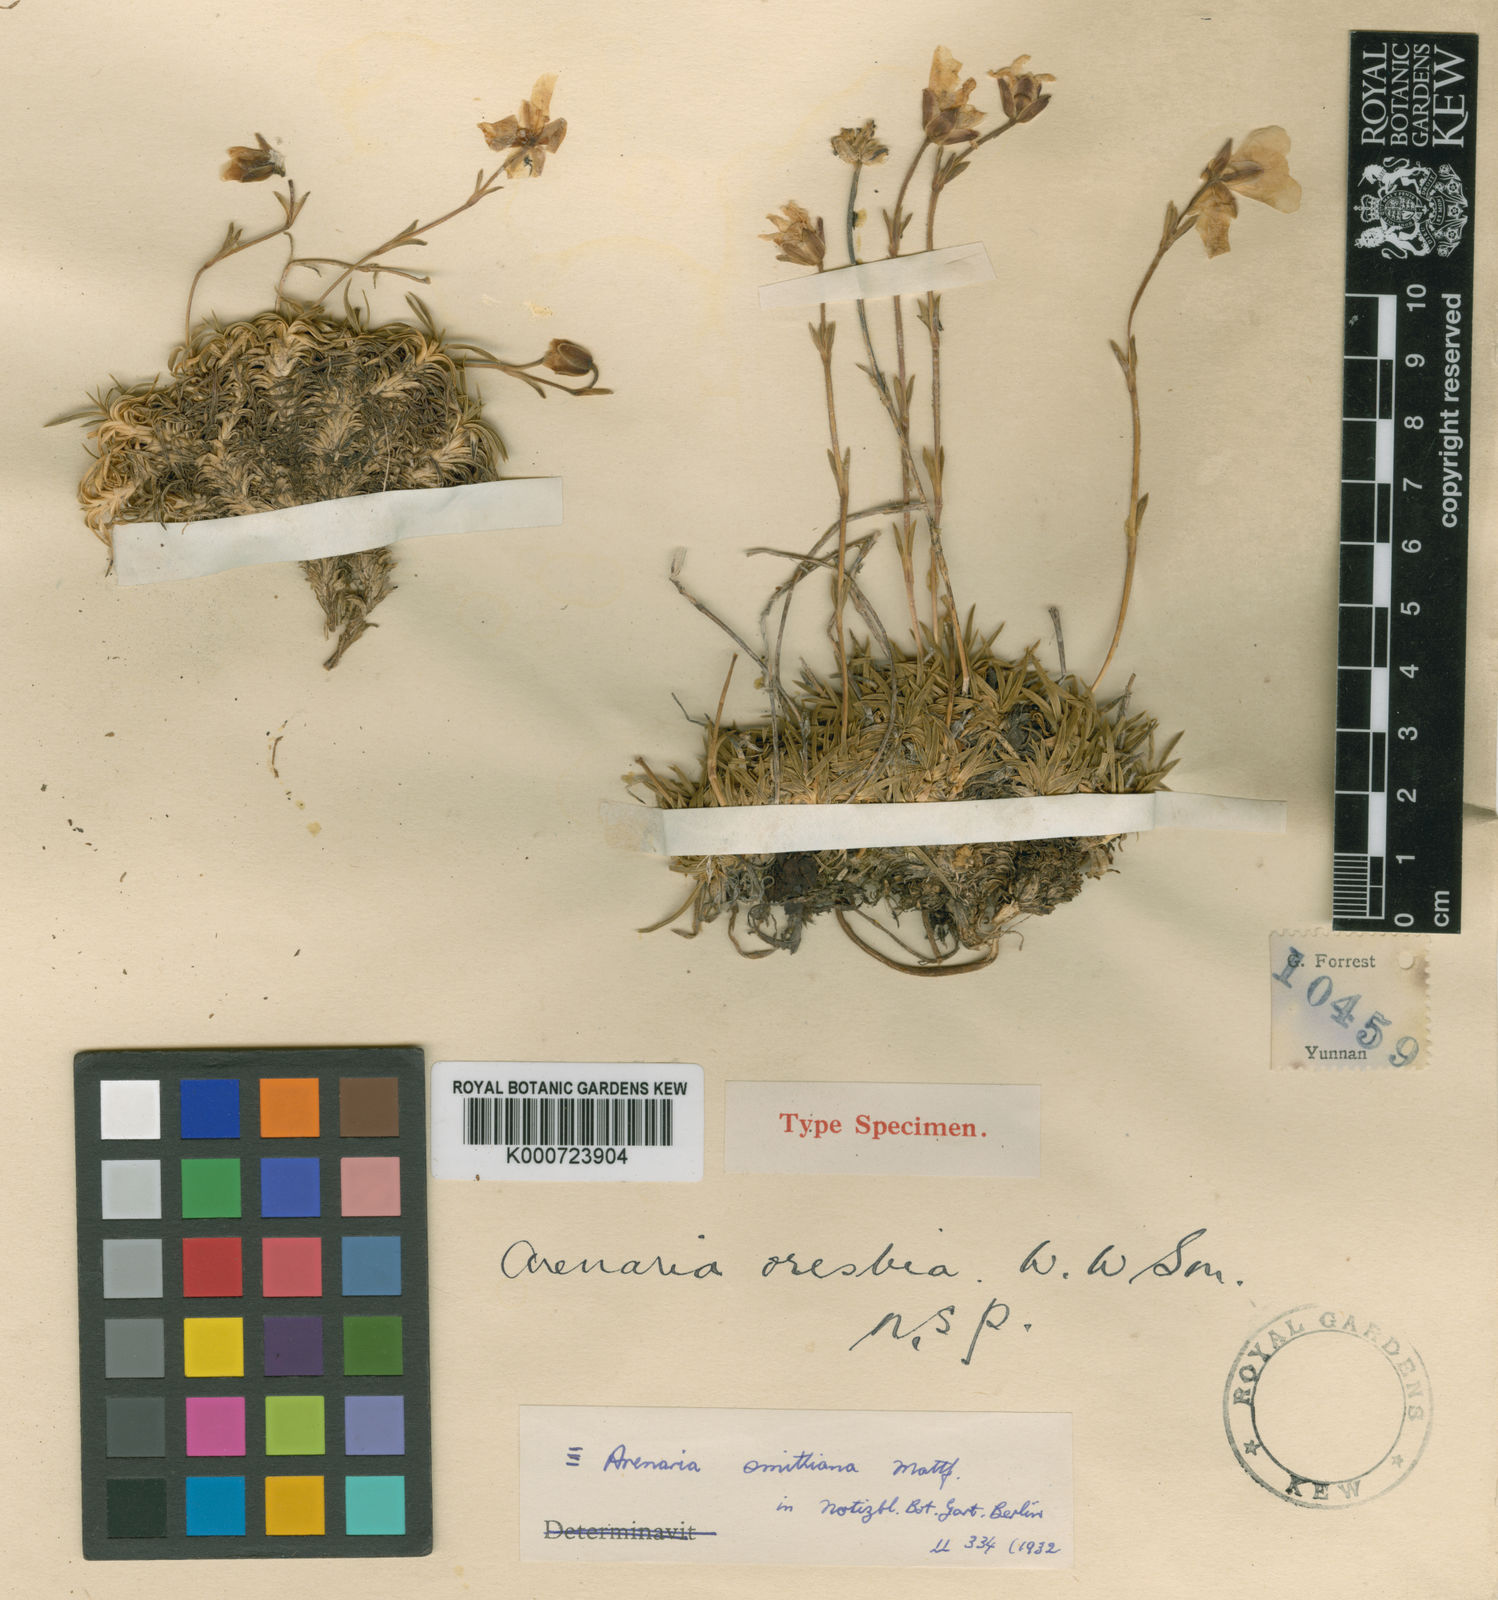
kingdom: Plantae
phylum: Tracheophyta
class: Magnoliopsida
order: Caryophyllales
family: Caryophyllaceae
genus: Arenaria
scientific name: Arenaria smithiana
